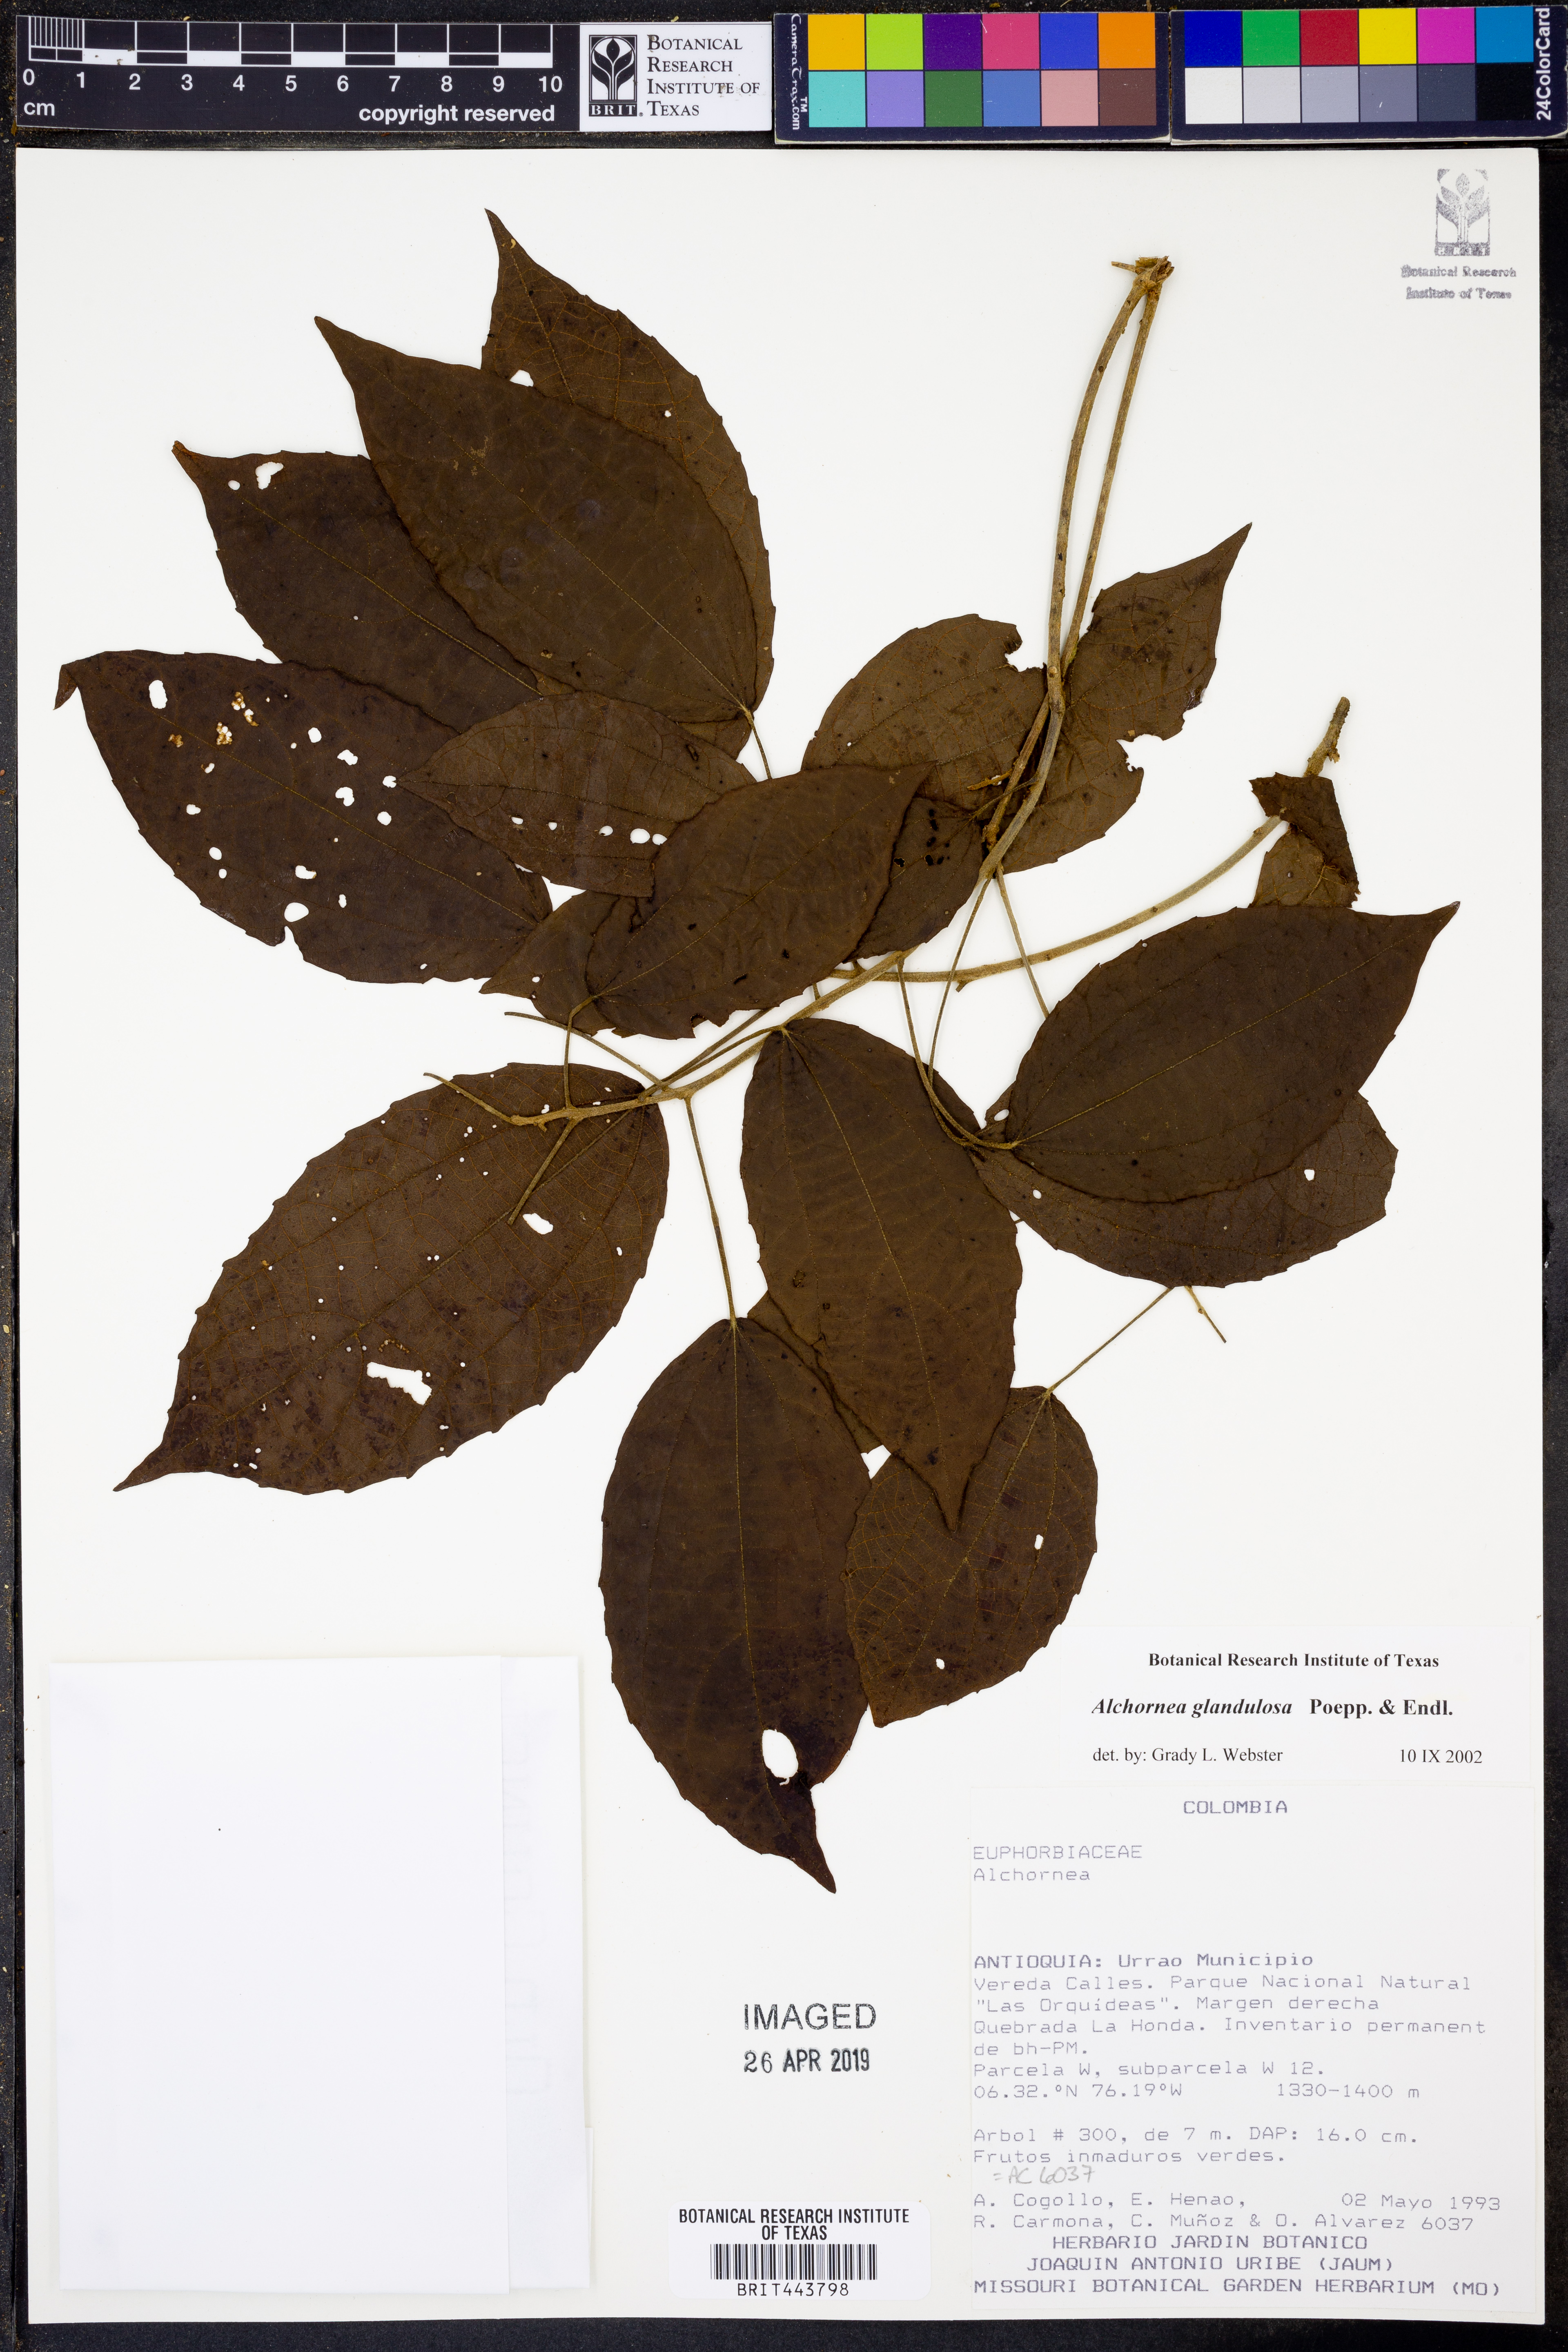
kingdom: Plantae
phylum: Tracheophyta
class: Magnoliopsida
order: Malpighiales
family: Euphorbiaceae
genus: Alchornea
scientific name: Alchornea glandulosa
